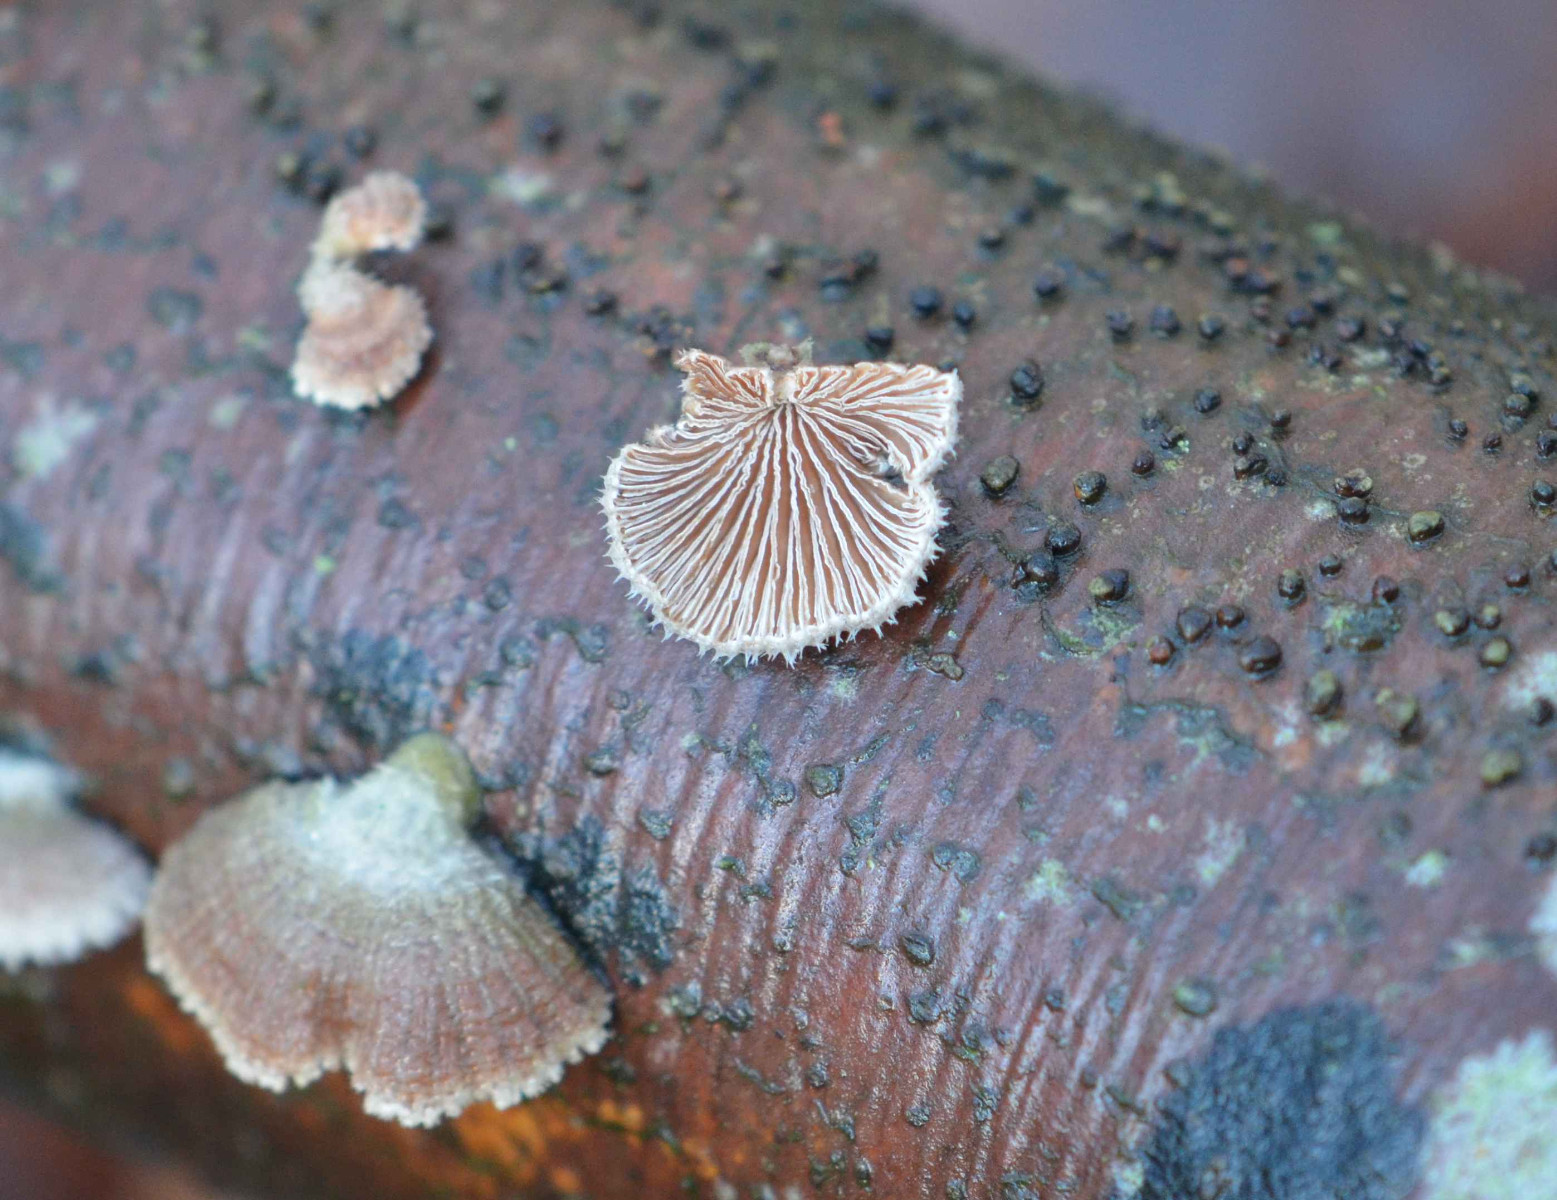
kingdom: Fungi
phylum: Basidiomycota
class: Agaricomycetes
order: Agaricales
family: Schizophyllaceae
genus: Schizophyllum
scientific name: Schizophyllum commune
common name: kløvblad
